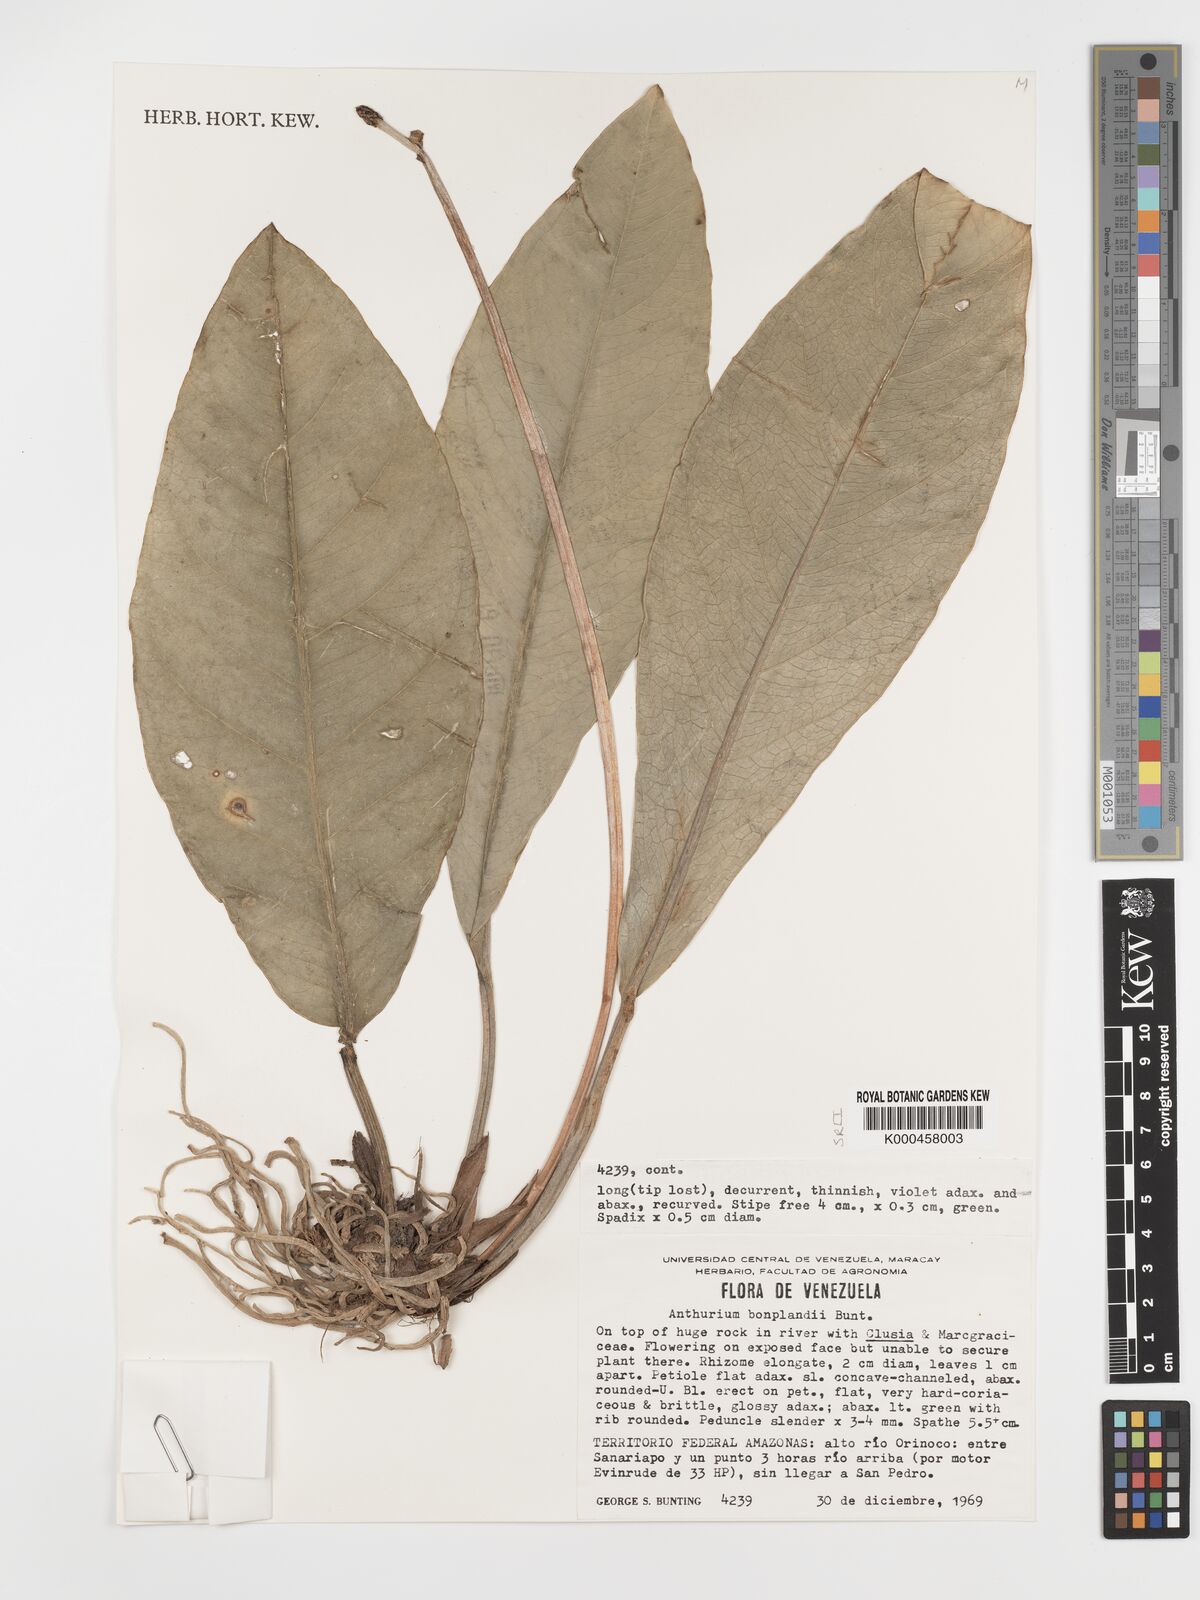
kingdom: Plantae
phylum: Tracheophyta
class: Liliopsida
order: Alismatales
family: Araceae
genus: Anthurium
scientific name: Anthurium bonplandii
